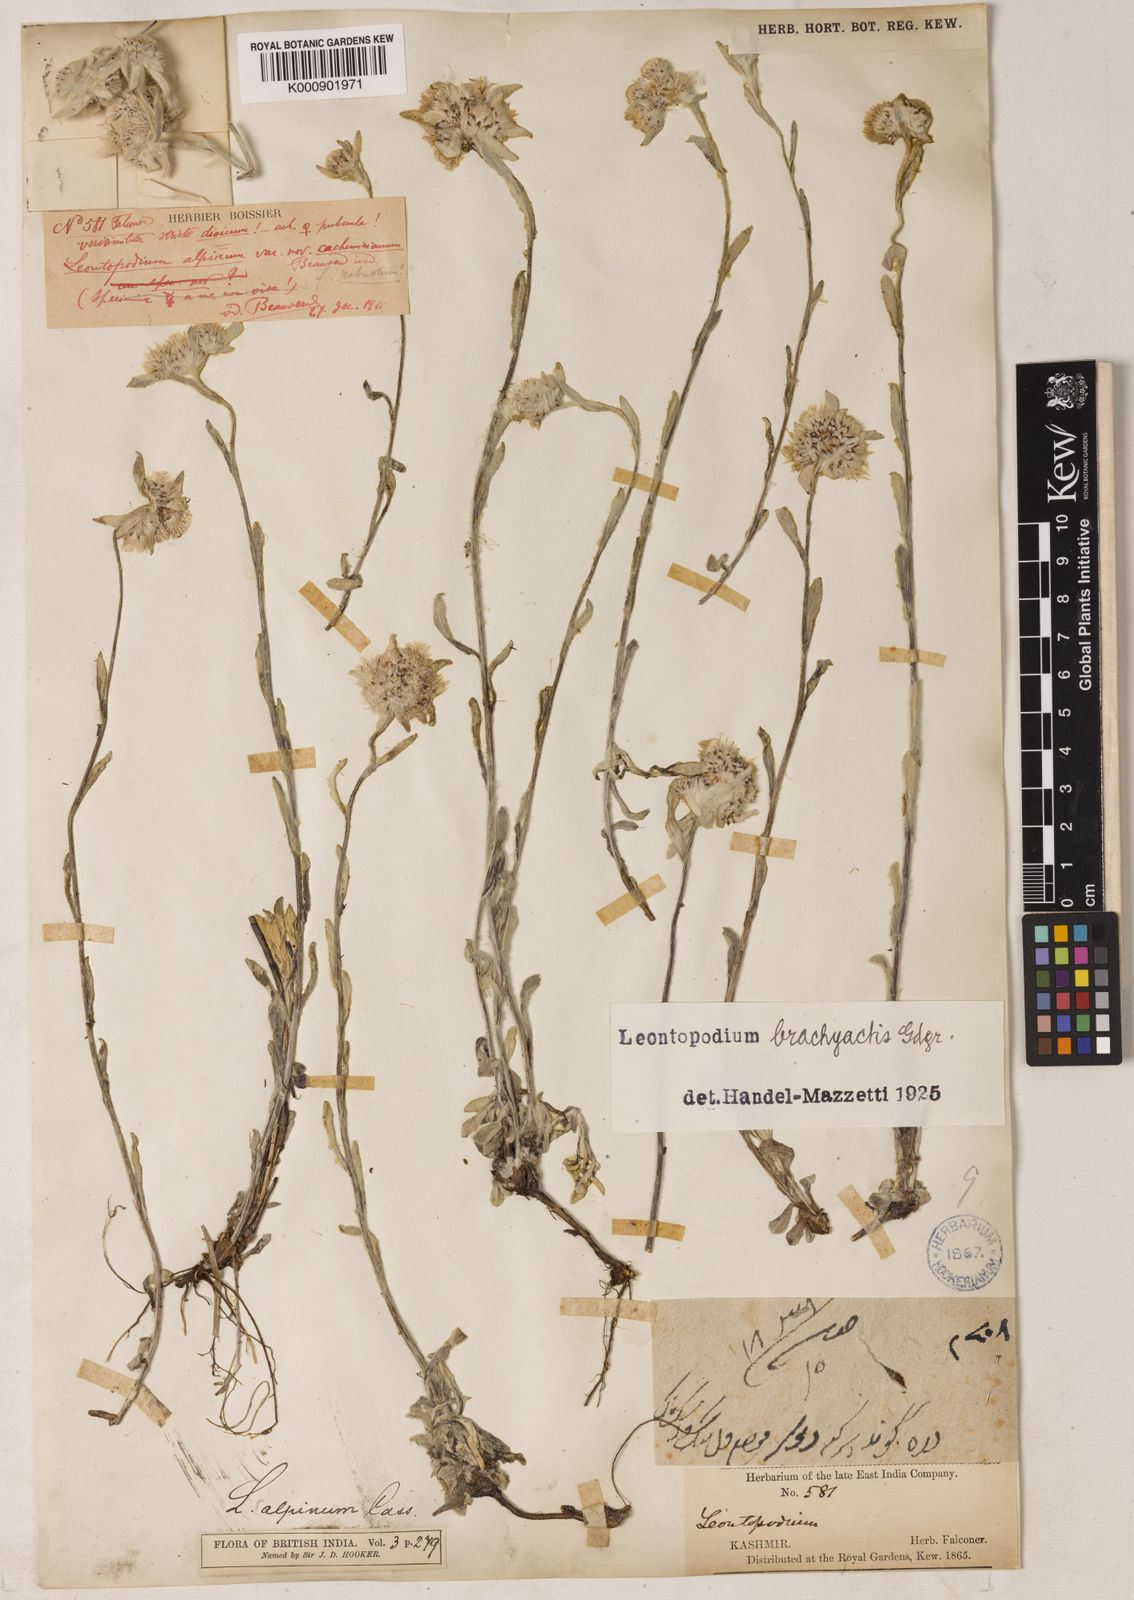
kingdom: Plantae
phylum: Tracheophyta
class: Magnoliopsida
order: Asterales
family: Asteraceae
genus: Leontopodium
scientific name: Leontopodium brachyactis
